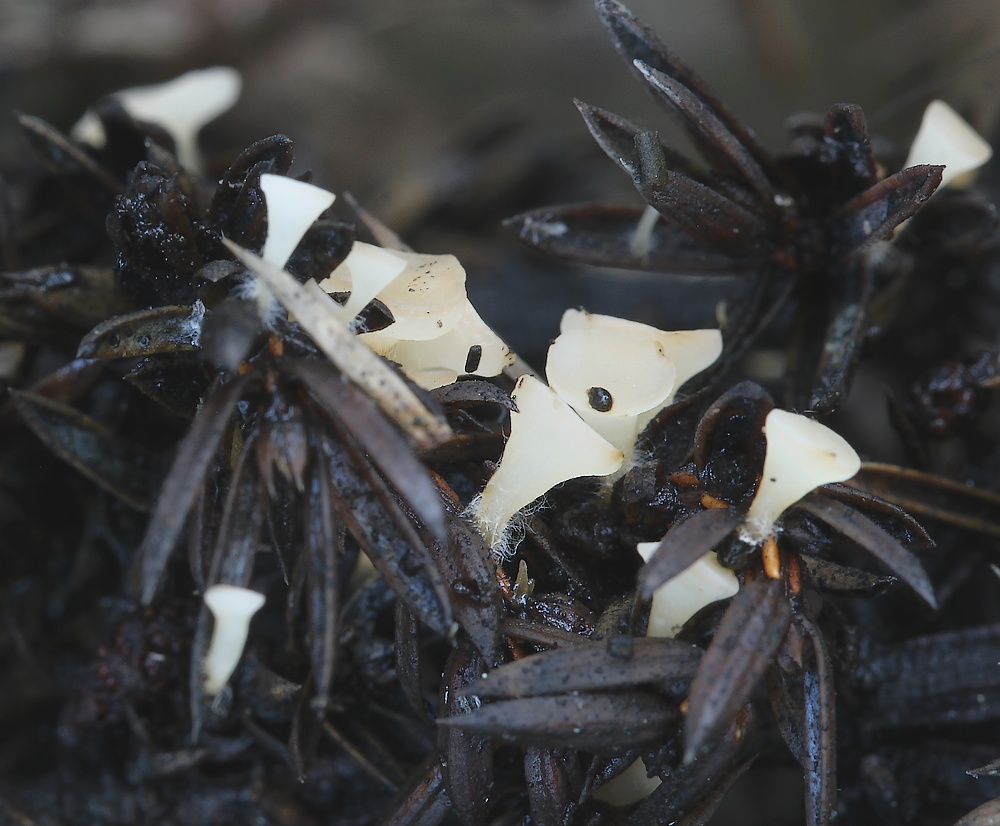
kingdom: Fungi
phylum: Ascomycota
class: Pezizomycetes
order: Pezizales
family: Sarcoscyphaceae
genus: Pithya
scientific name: Pithya cupressina
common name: lille dukatbæger
